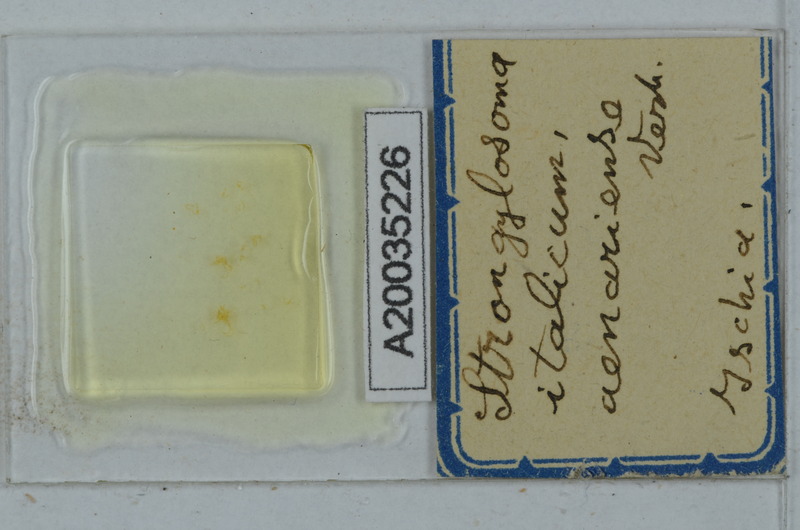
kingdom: Animalia
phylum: Arthropoda
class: Diplopoda
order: Polydesmida
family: Paradoxosomatidae
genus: Strongylosoma
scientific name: Strongylosoma italica
